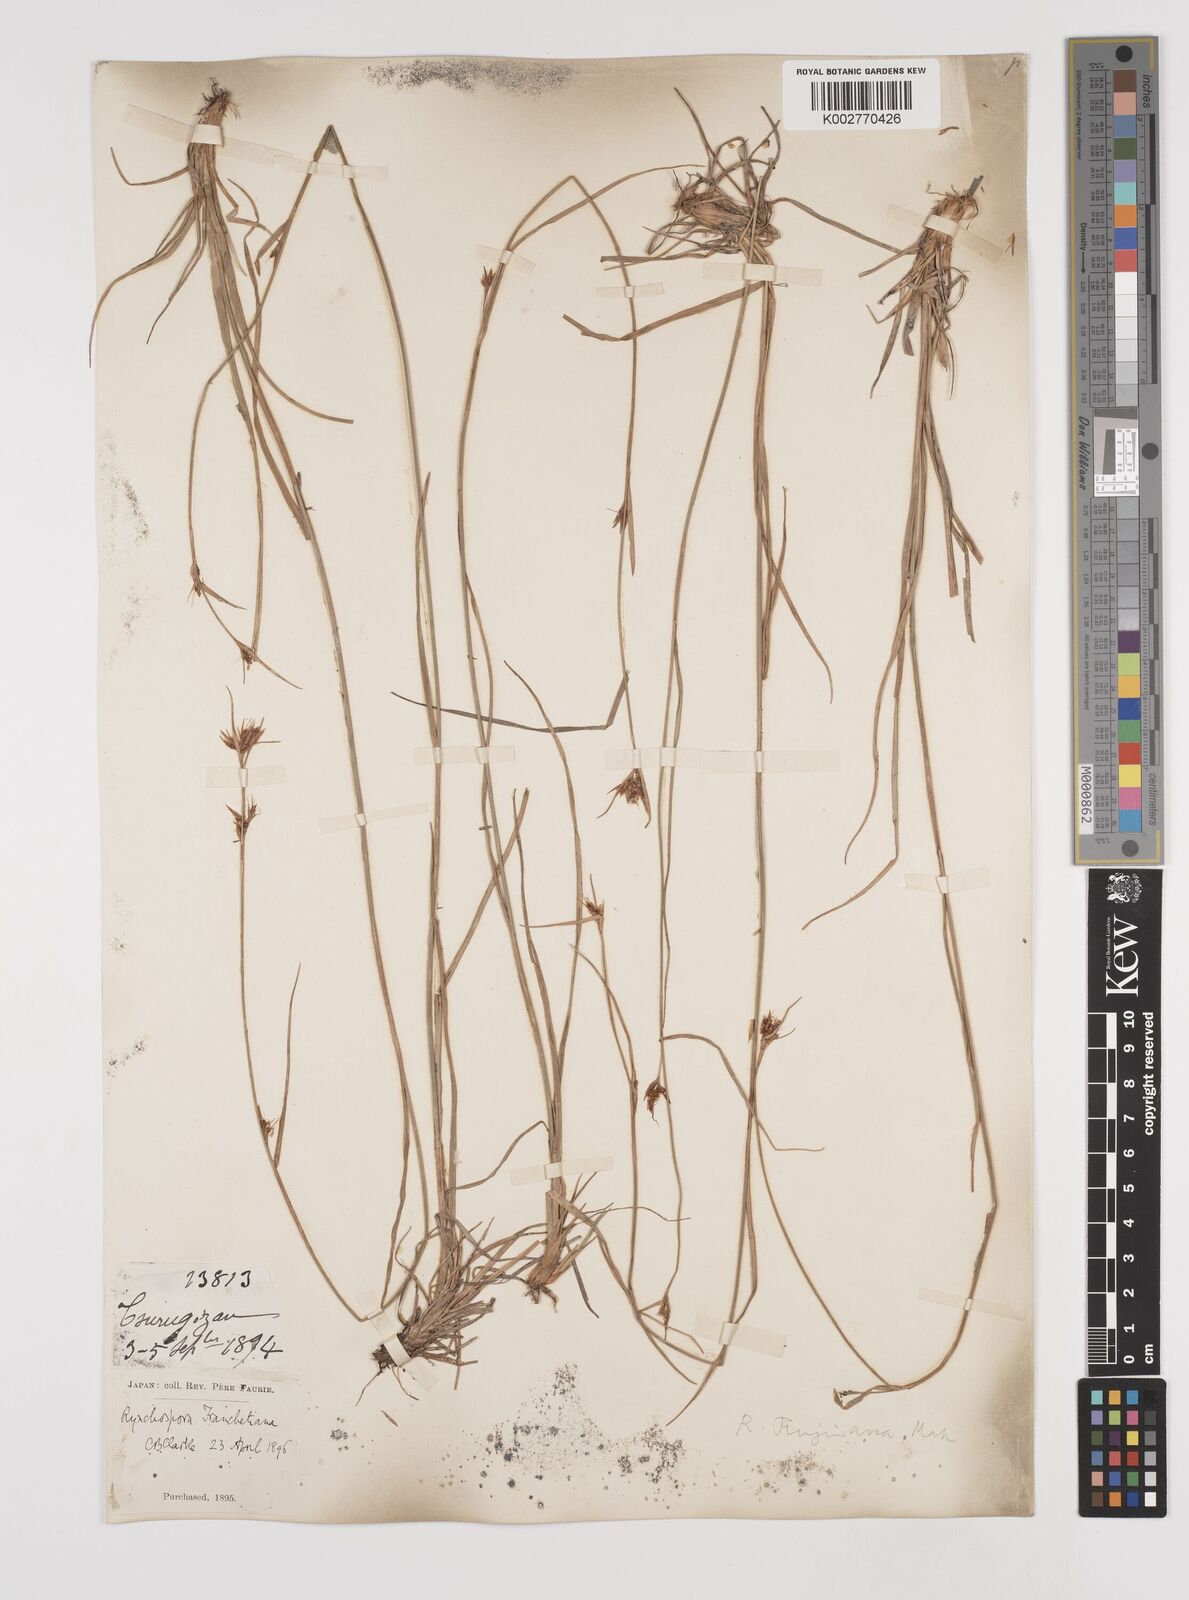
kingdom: Plantae
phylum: Tracheophyta
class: Liliopsida
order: Poales
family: Cyperaceae
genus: Rhynchospora
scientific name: Rhynchospora fujiiana
